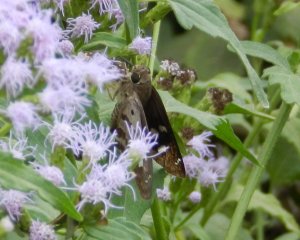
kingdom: Animalia
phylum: Arthropoda
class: Insecta
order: Lepidoptera
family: Hesperiidae
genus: Polygonus
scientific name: Polygonus leo
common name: Hammock Skipper
